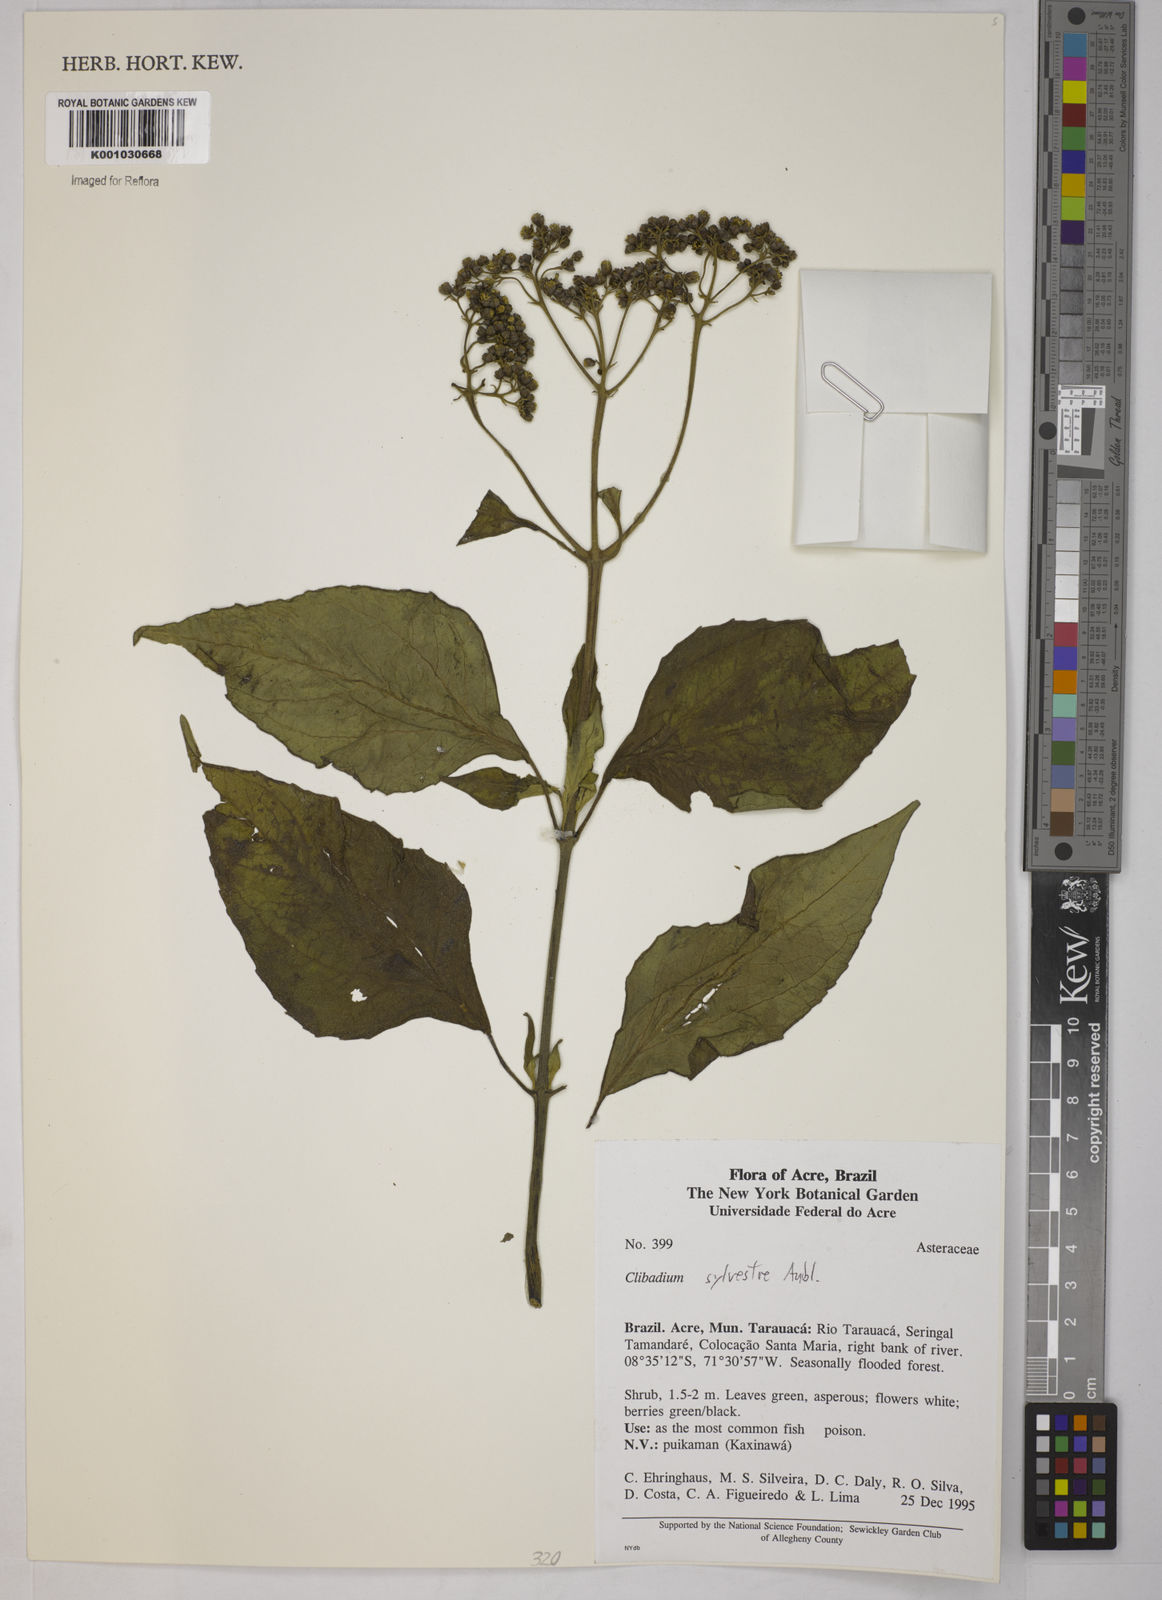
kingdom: Plantae
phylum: Tracheophyta
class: Magnoliopsida
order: Asterales
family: Asteraceae
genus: Clibadium
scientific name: Clibadium sylvestre
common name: Barbasco
